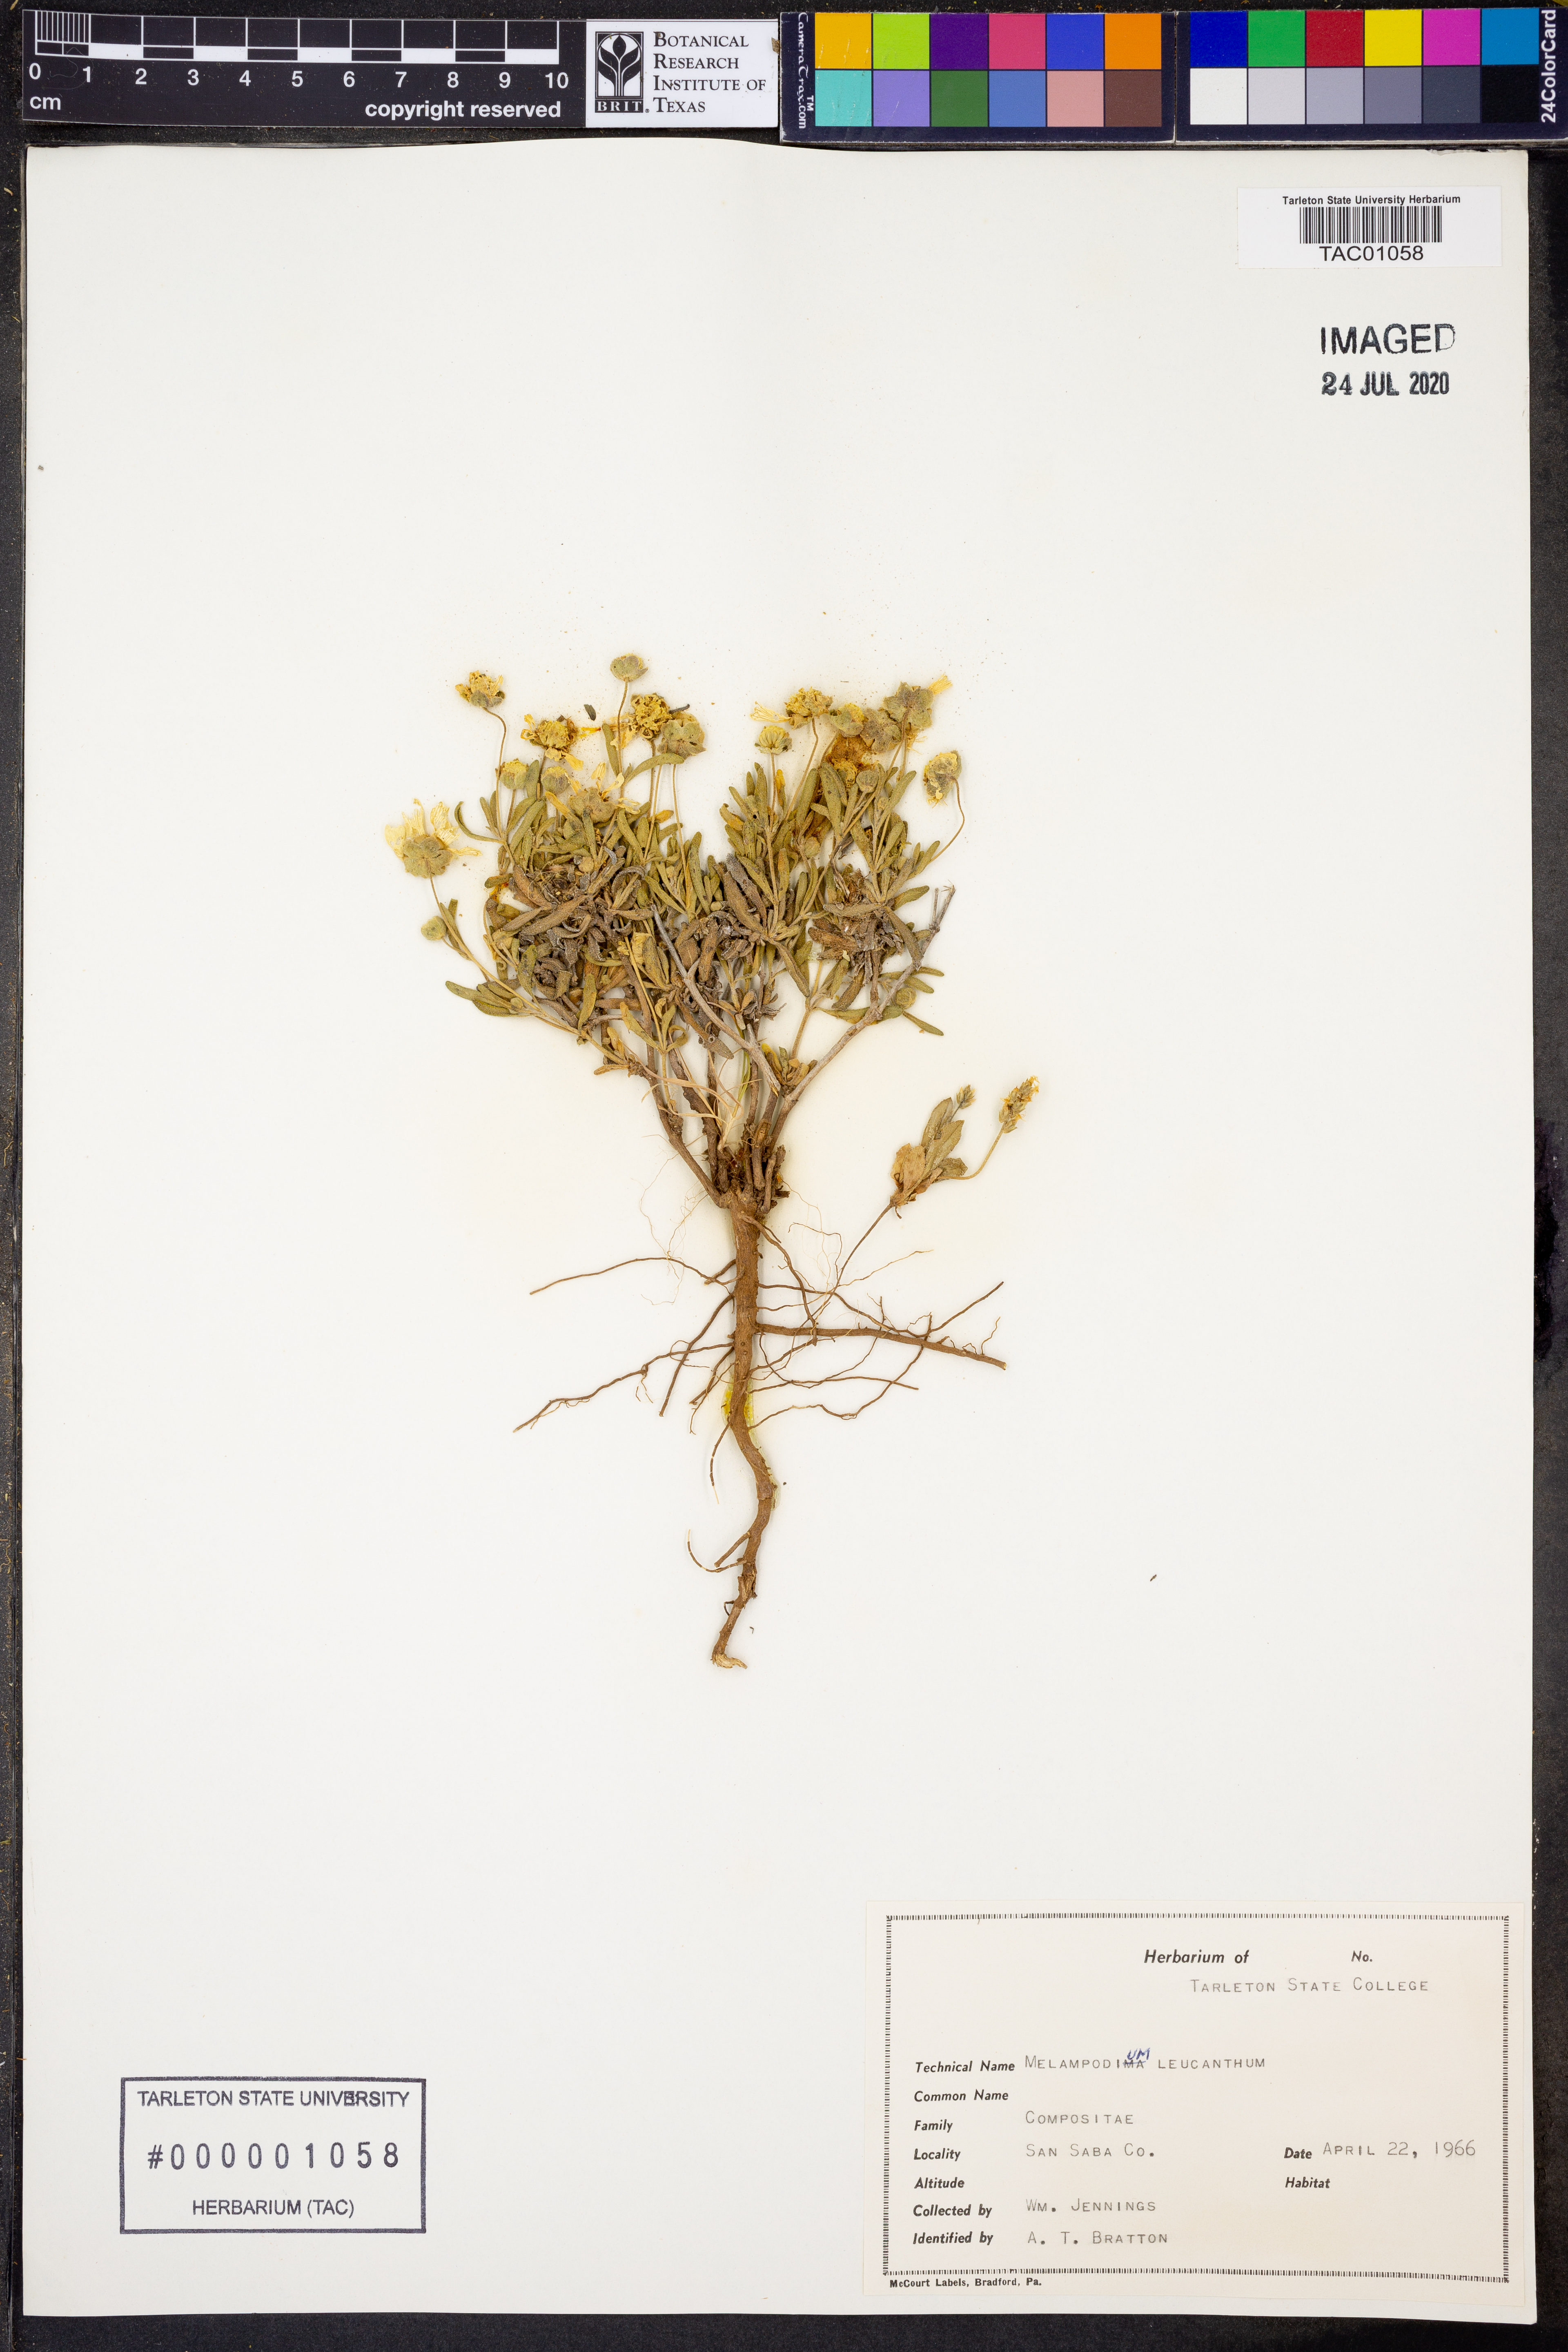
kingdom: Plantae
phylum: Tracheophyta
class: Magnoliopsida
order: Asterales
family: Asteraceae
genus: Melampodium
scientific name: Melampodium leucanthum
